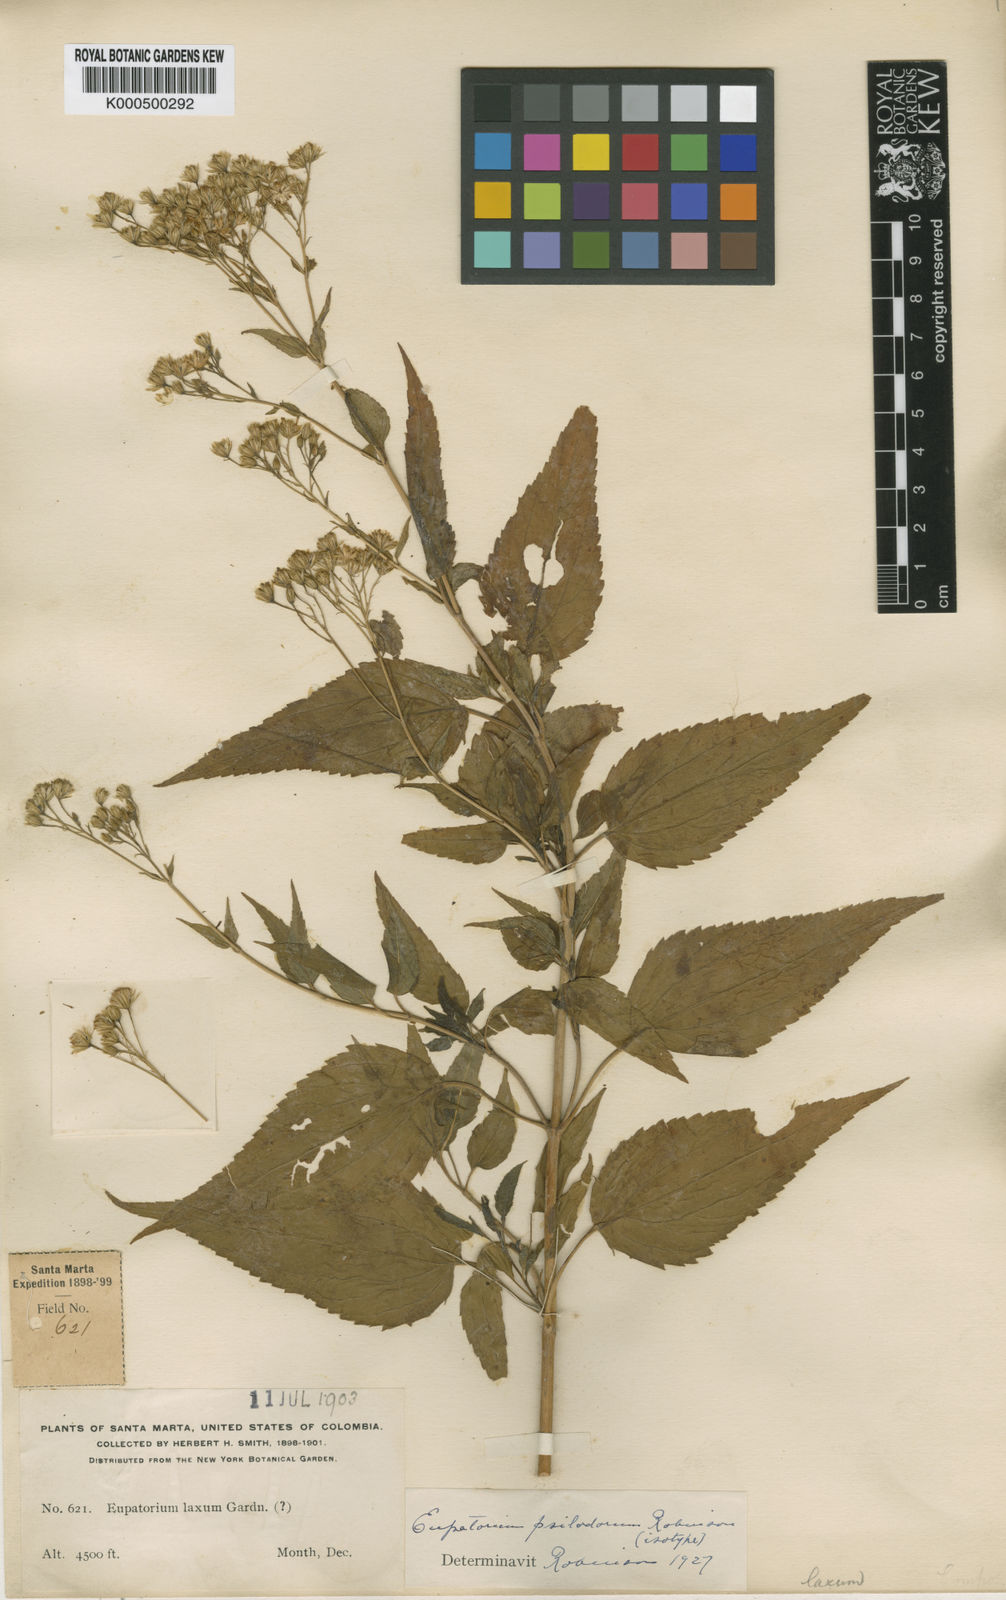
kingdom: Plantae
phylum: Tracheophyta
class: Magnoliopsida
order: Asterales
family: Asteraceae
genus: Ageratina
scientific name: Ageratina psilodora
